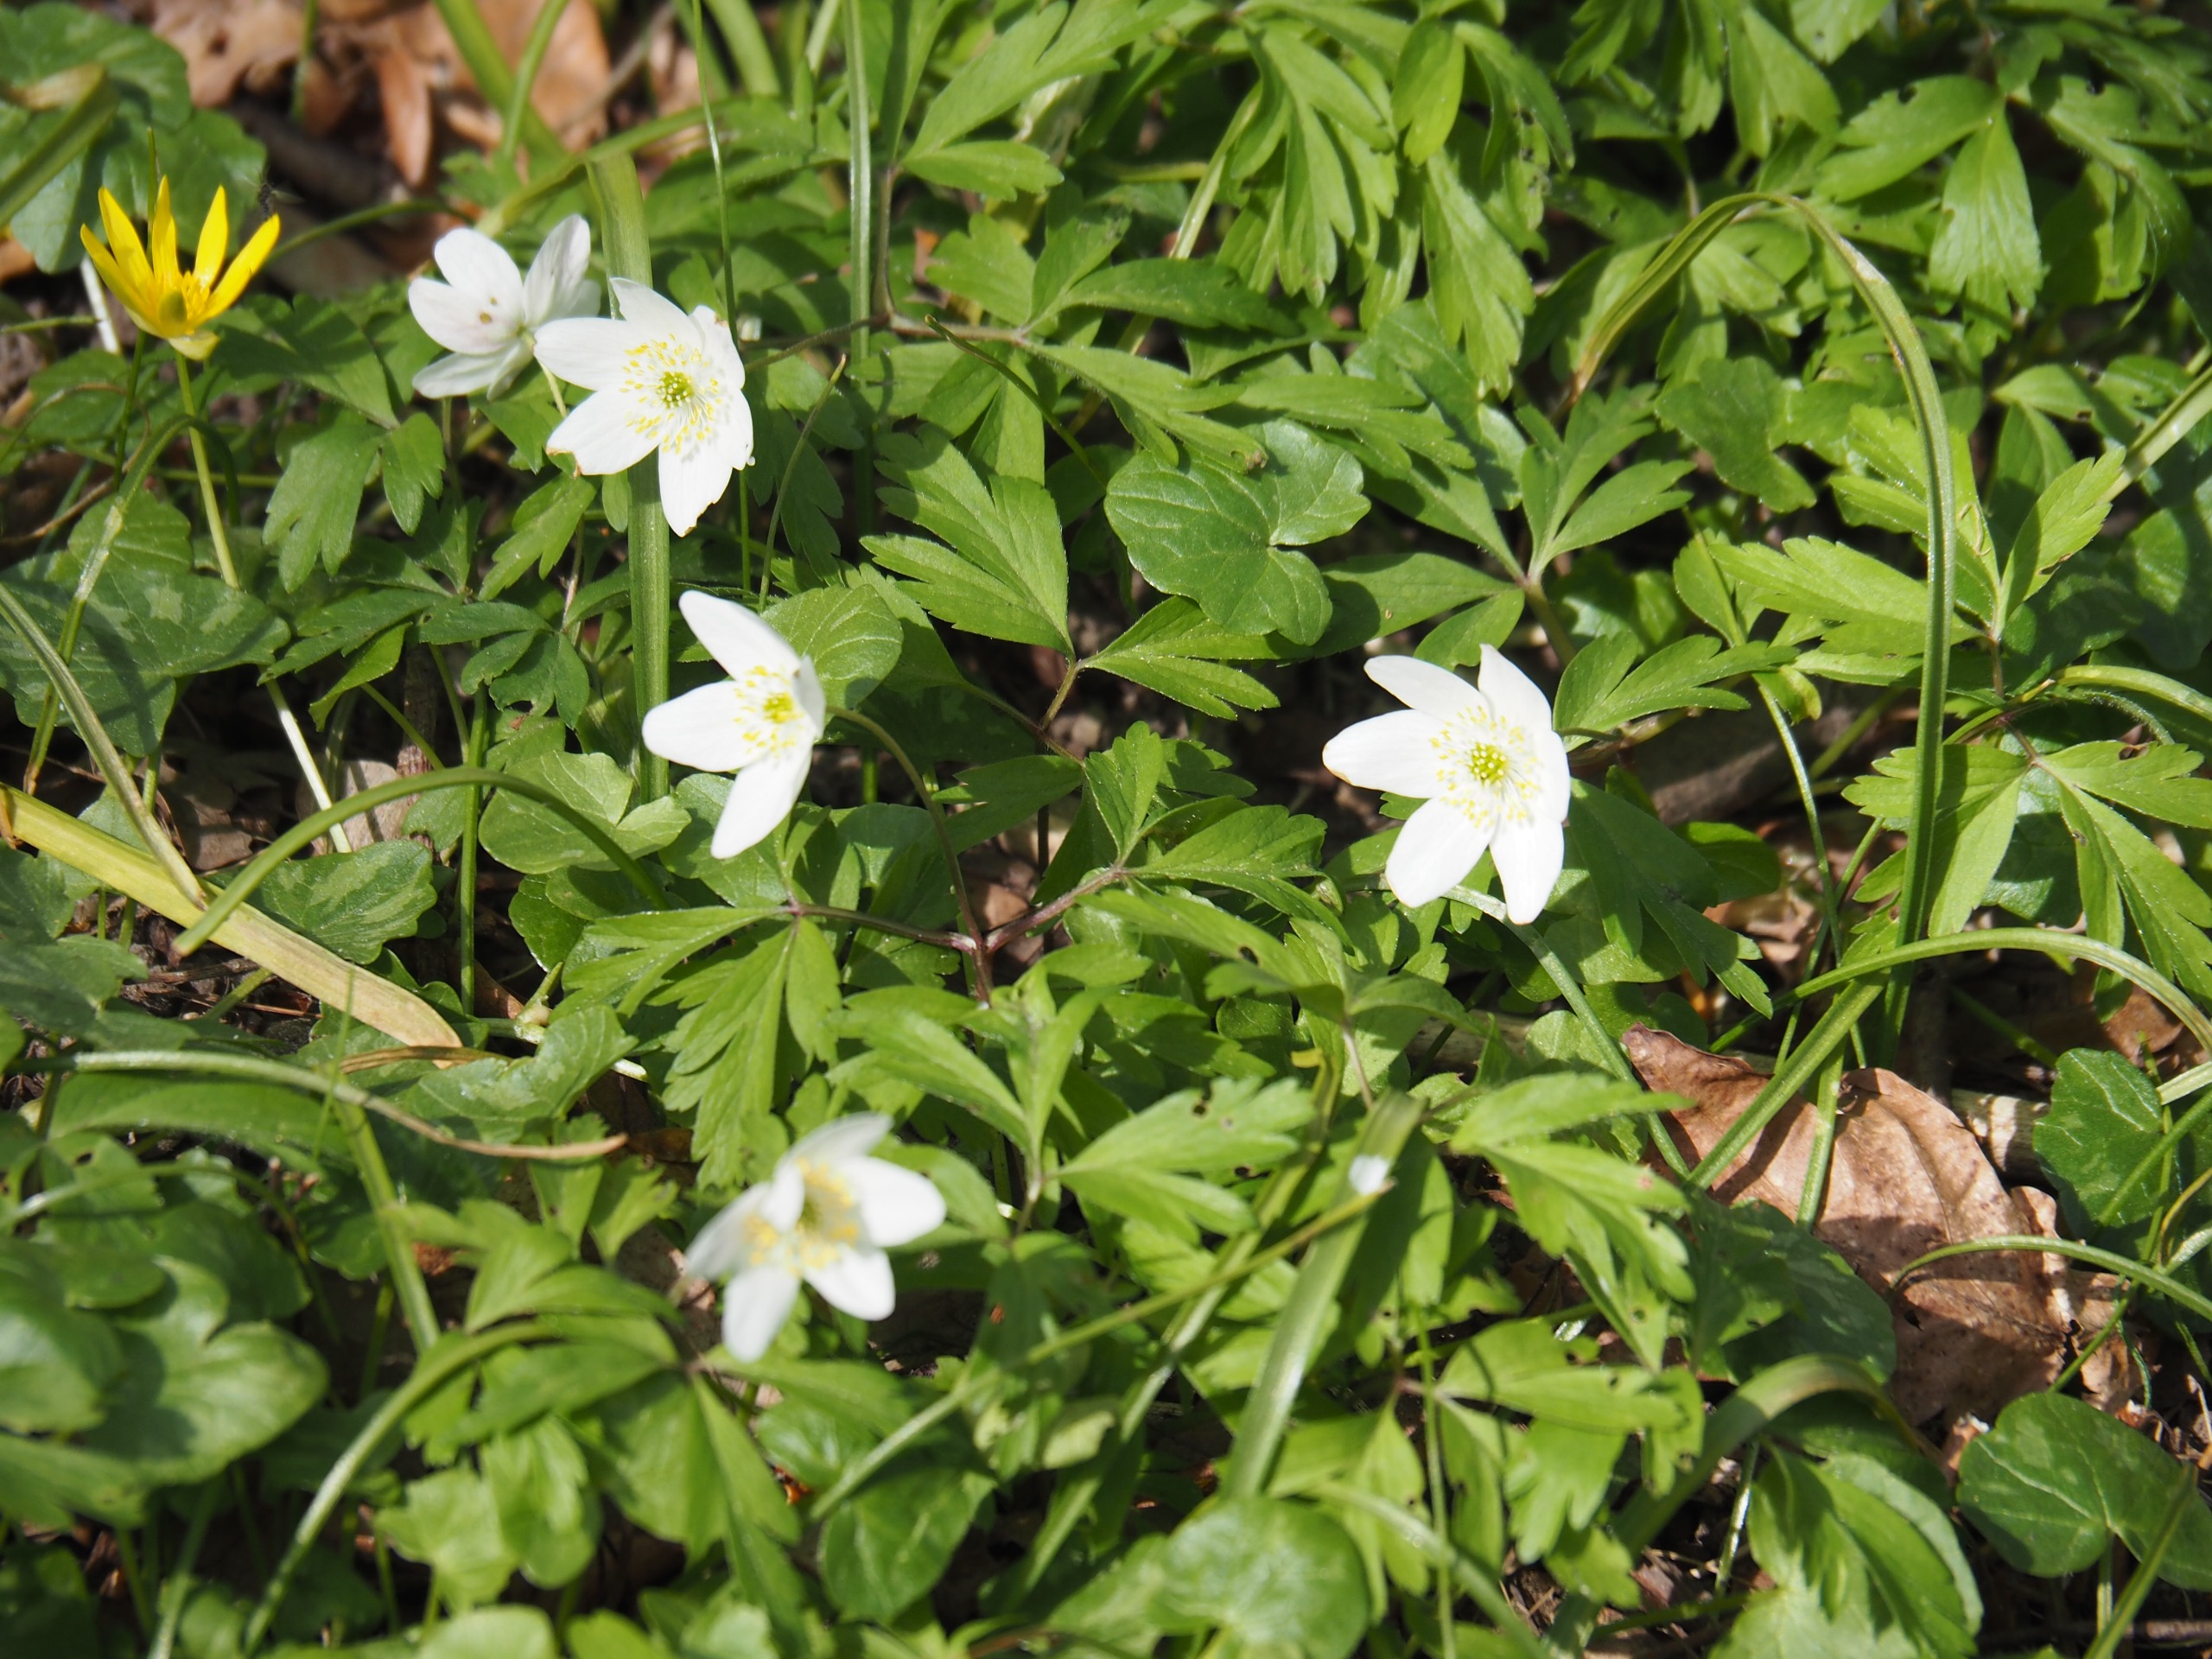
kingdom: Plantae
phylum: Tracheophyta
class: Magnoliopsida
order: Ranunculales
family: Ranunculaceae
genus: Anemone
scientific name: Anemone nemorosa
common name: Hvid anemone
